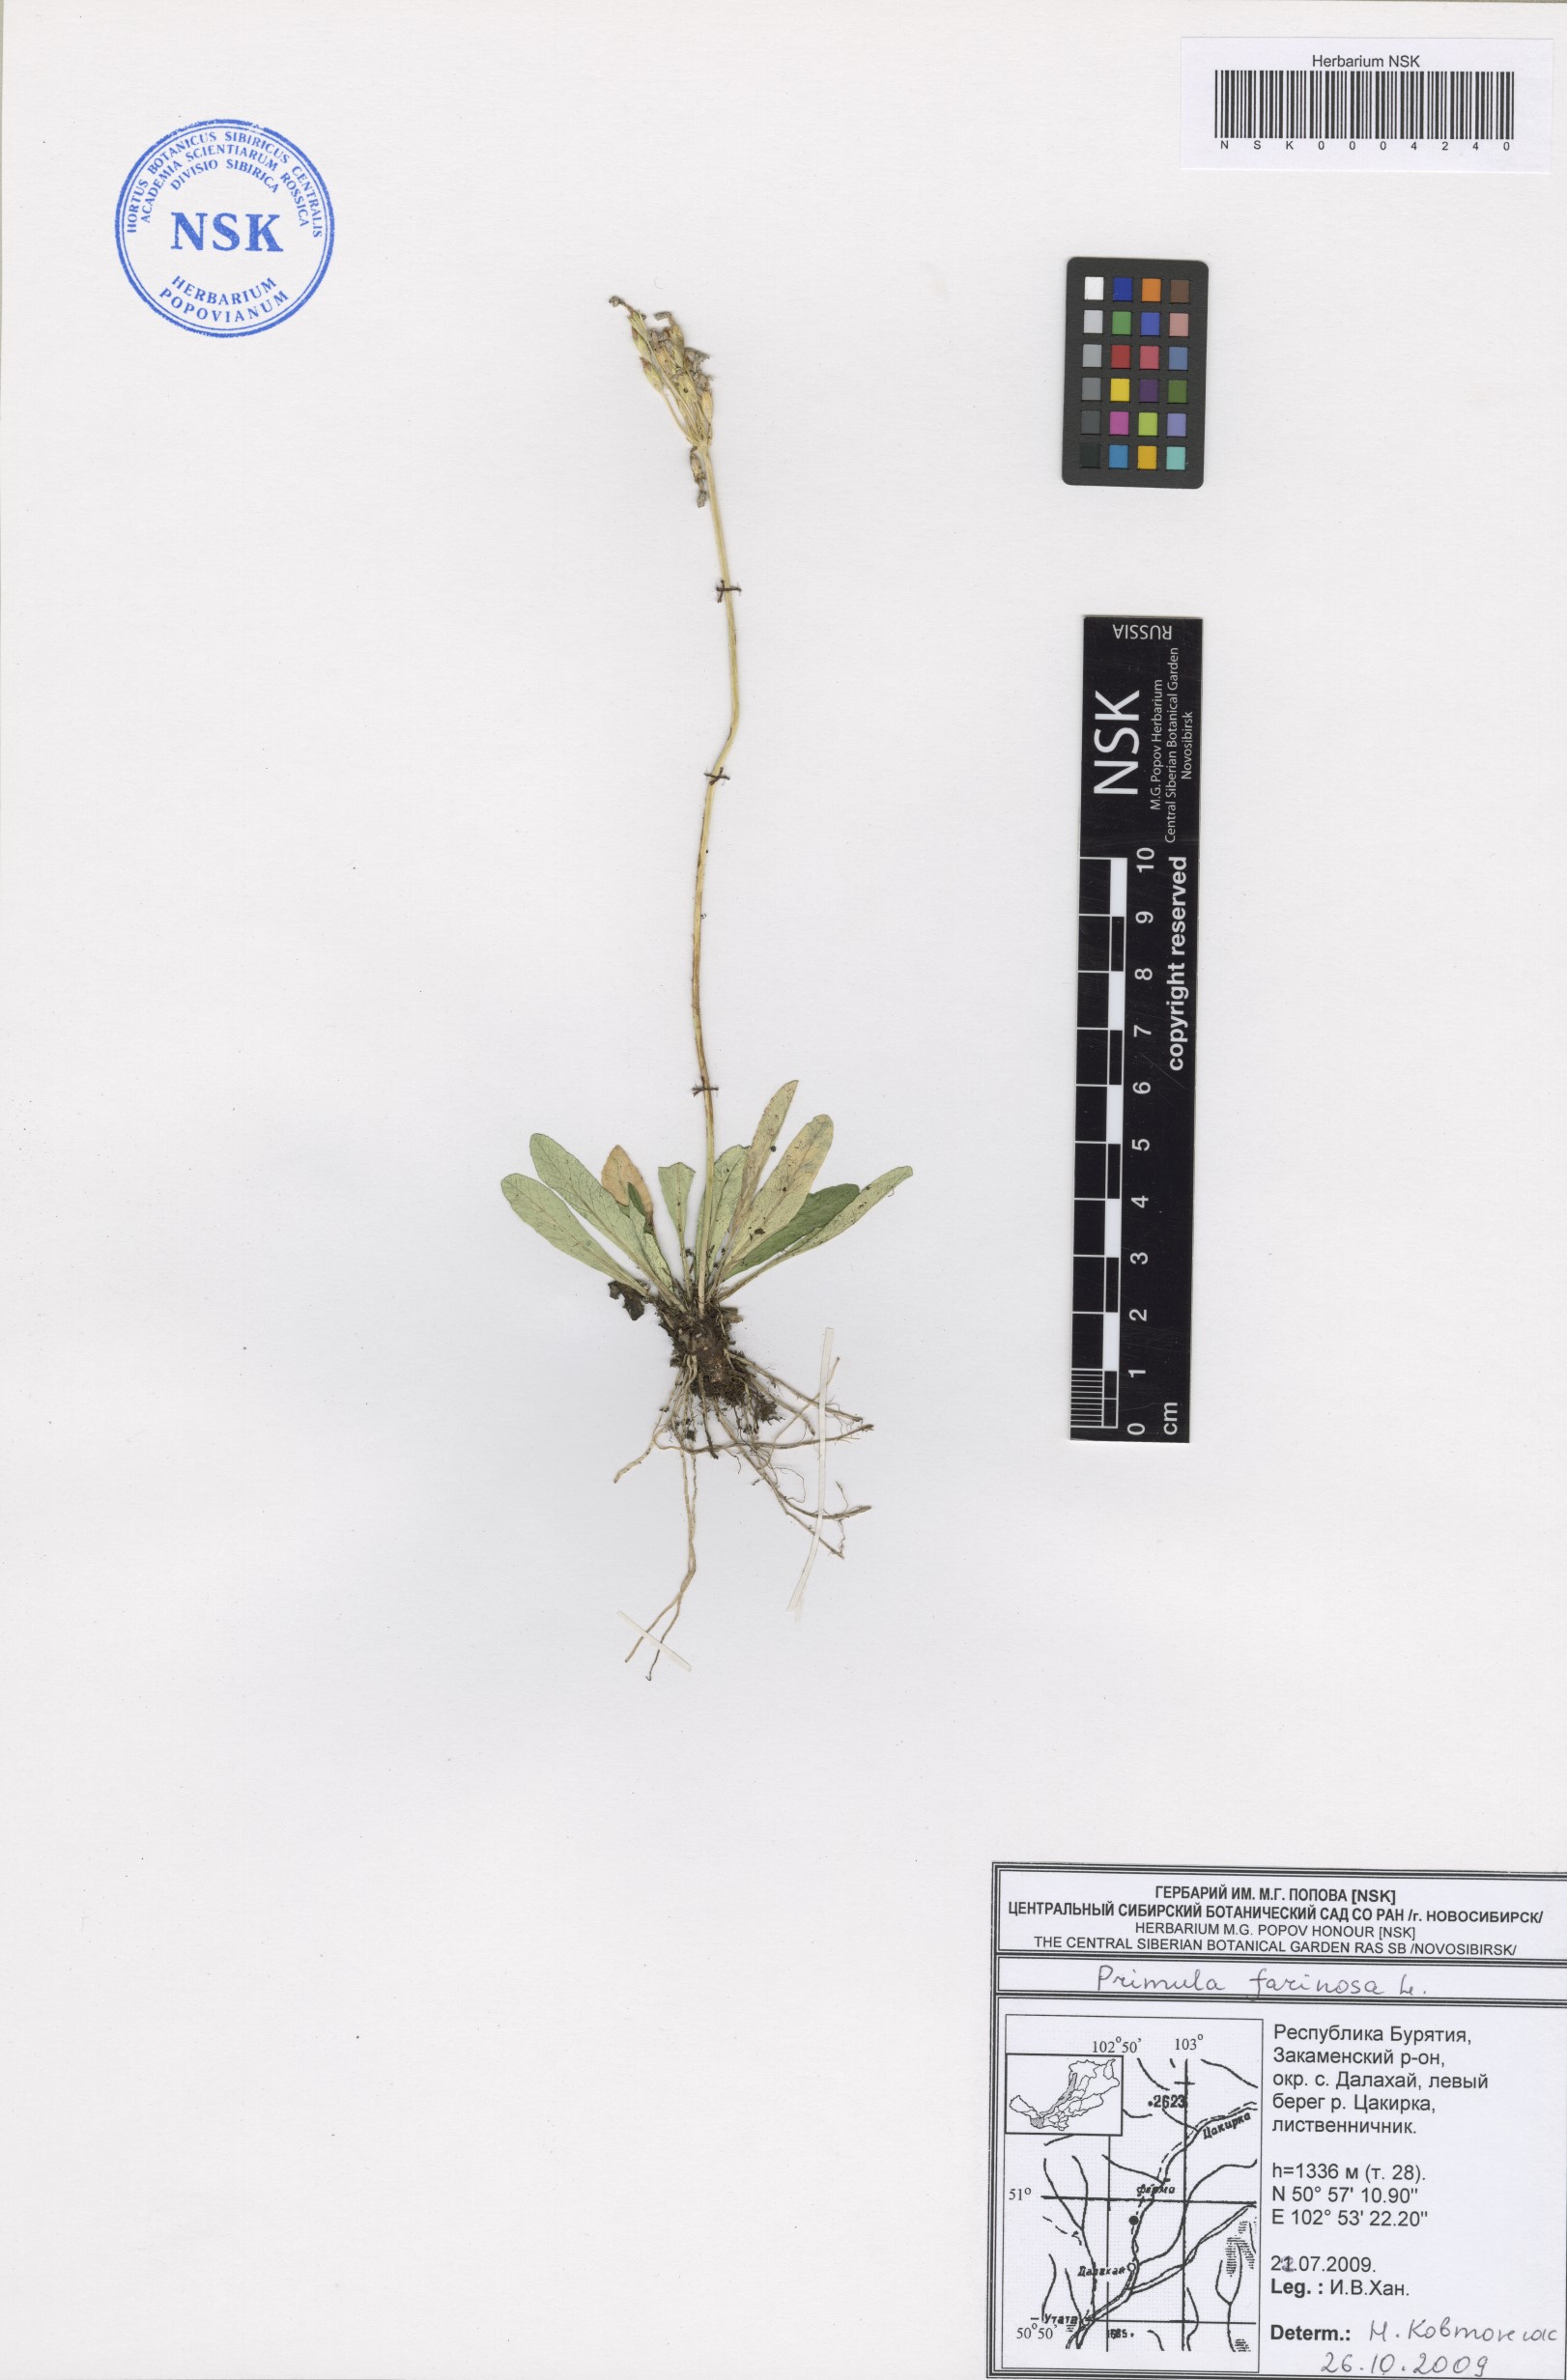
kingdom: Plantae
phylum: Tracheophyta
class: Magnoliopsida
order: Ericales
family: Primulaceae
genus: Primula
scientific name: Primula farinosa
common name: Bird's-eye primrose
